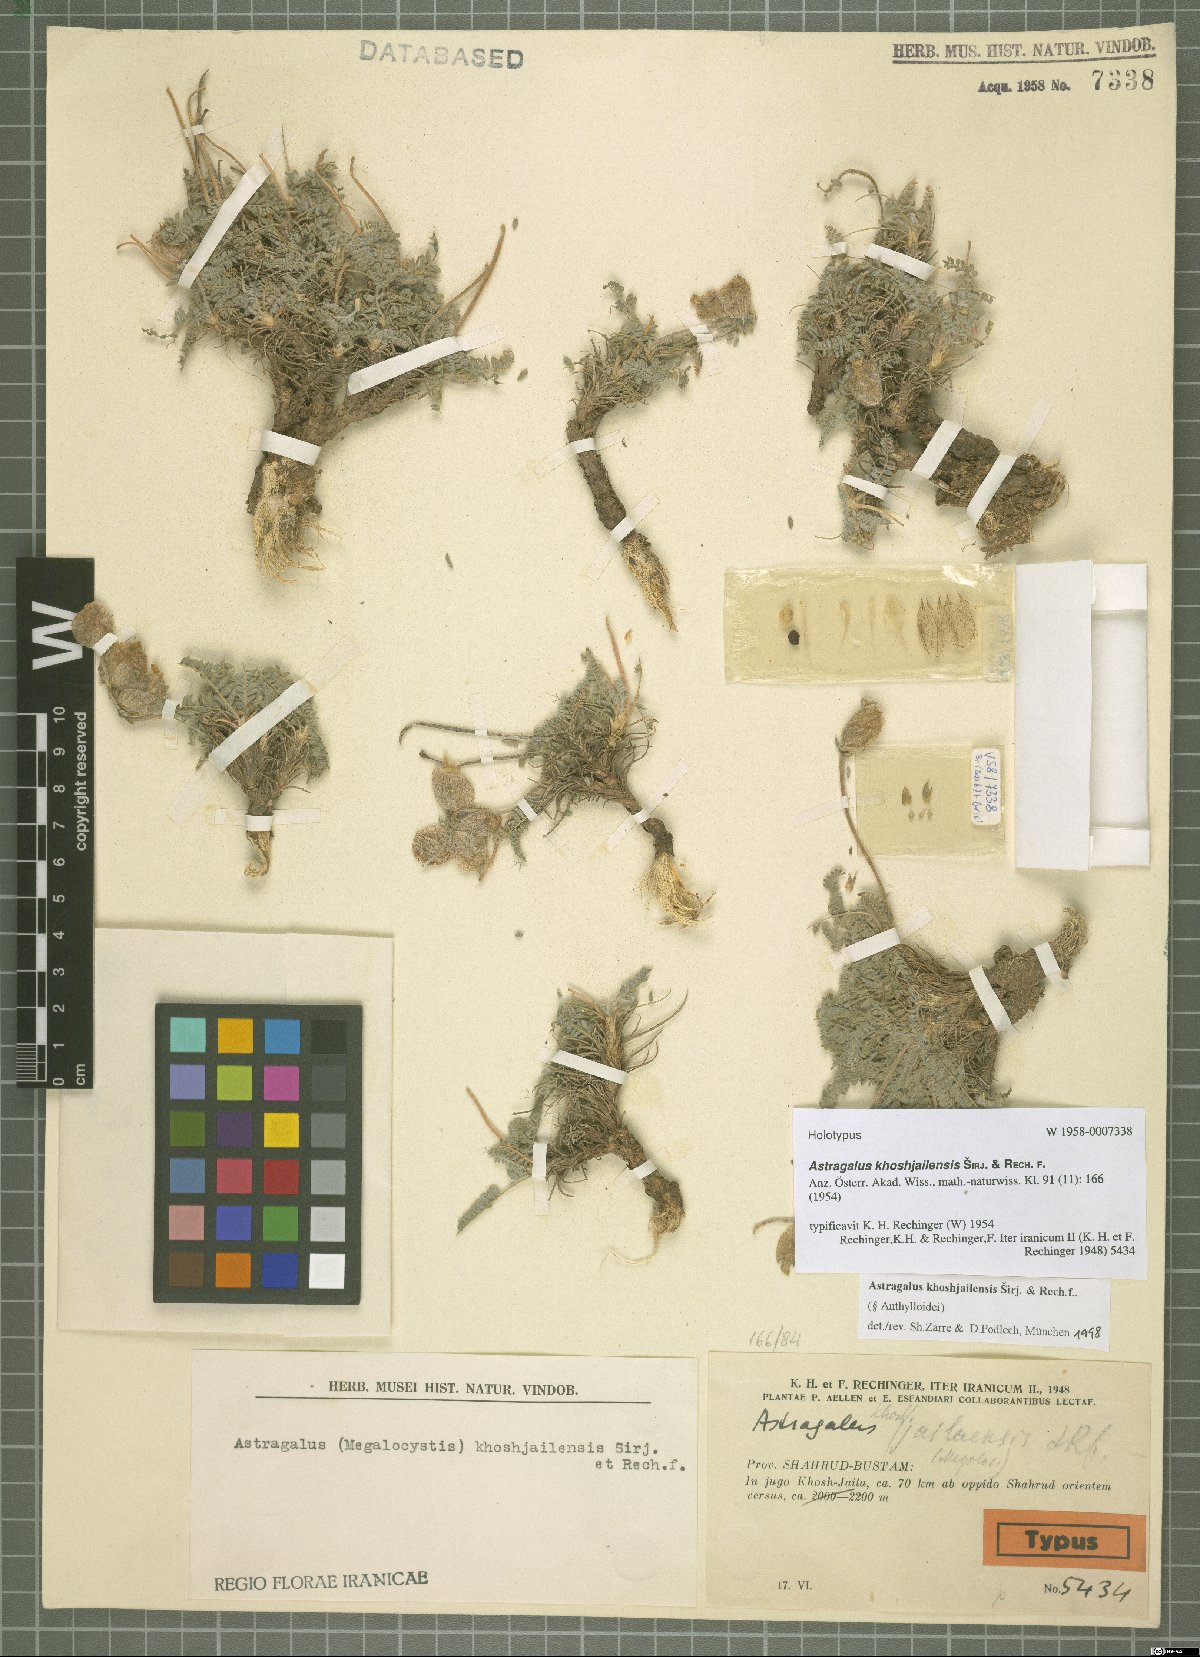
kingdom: Plantae
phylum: Tracheophyta
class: Magnoliopsida
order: Fabales
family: Fabaceae
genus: Astragalus
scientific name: Astragalus khoshjailensis
